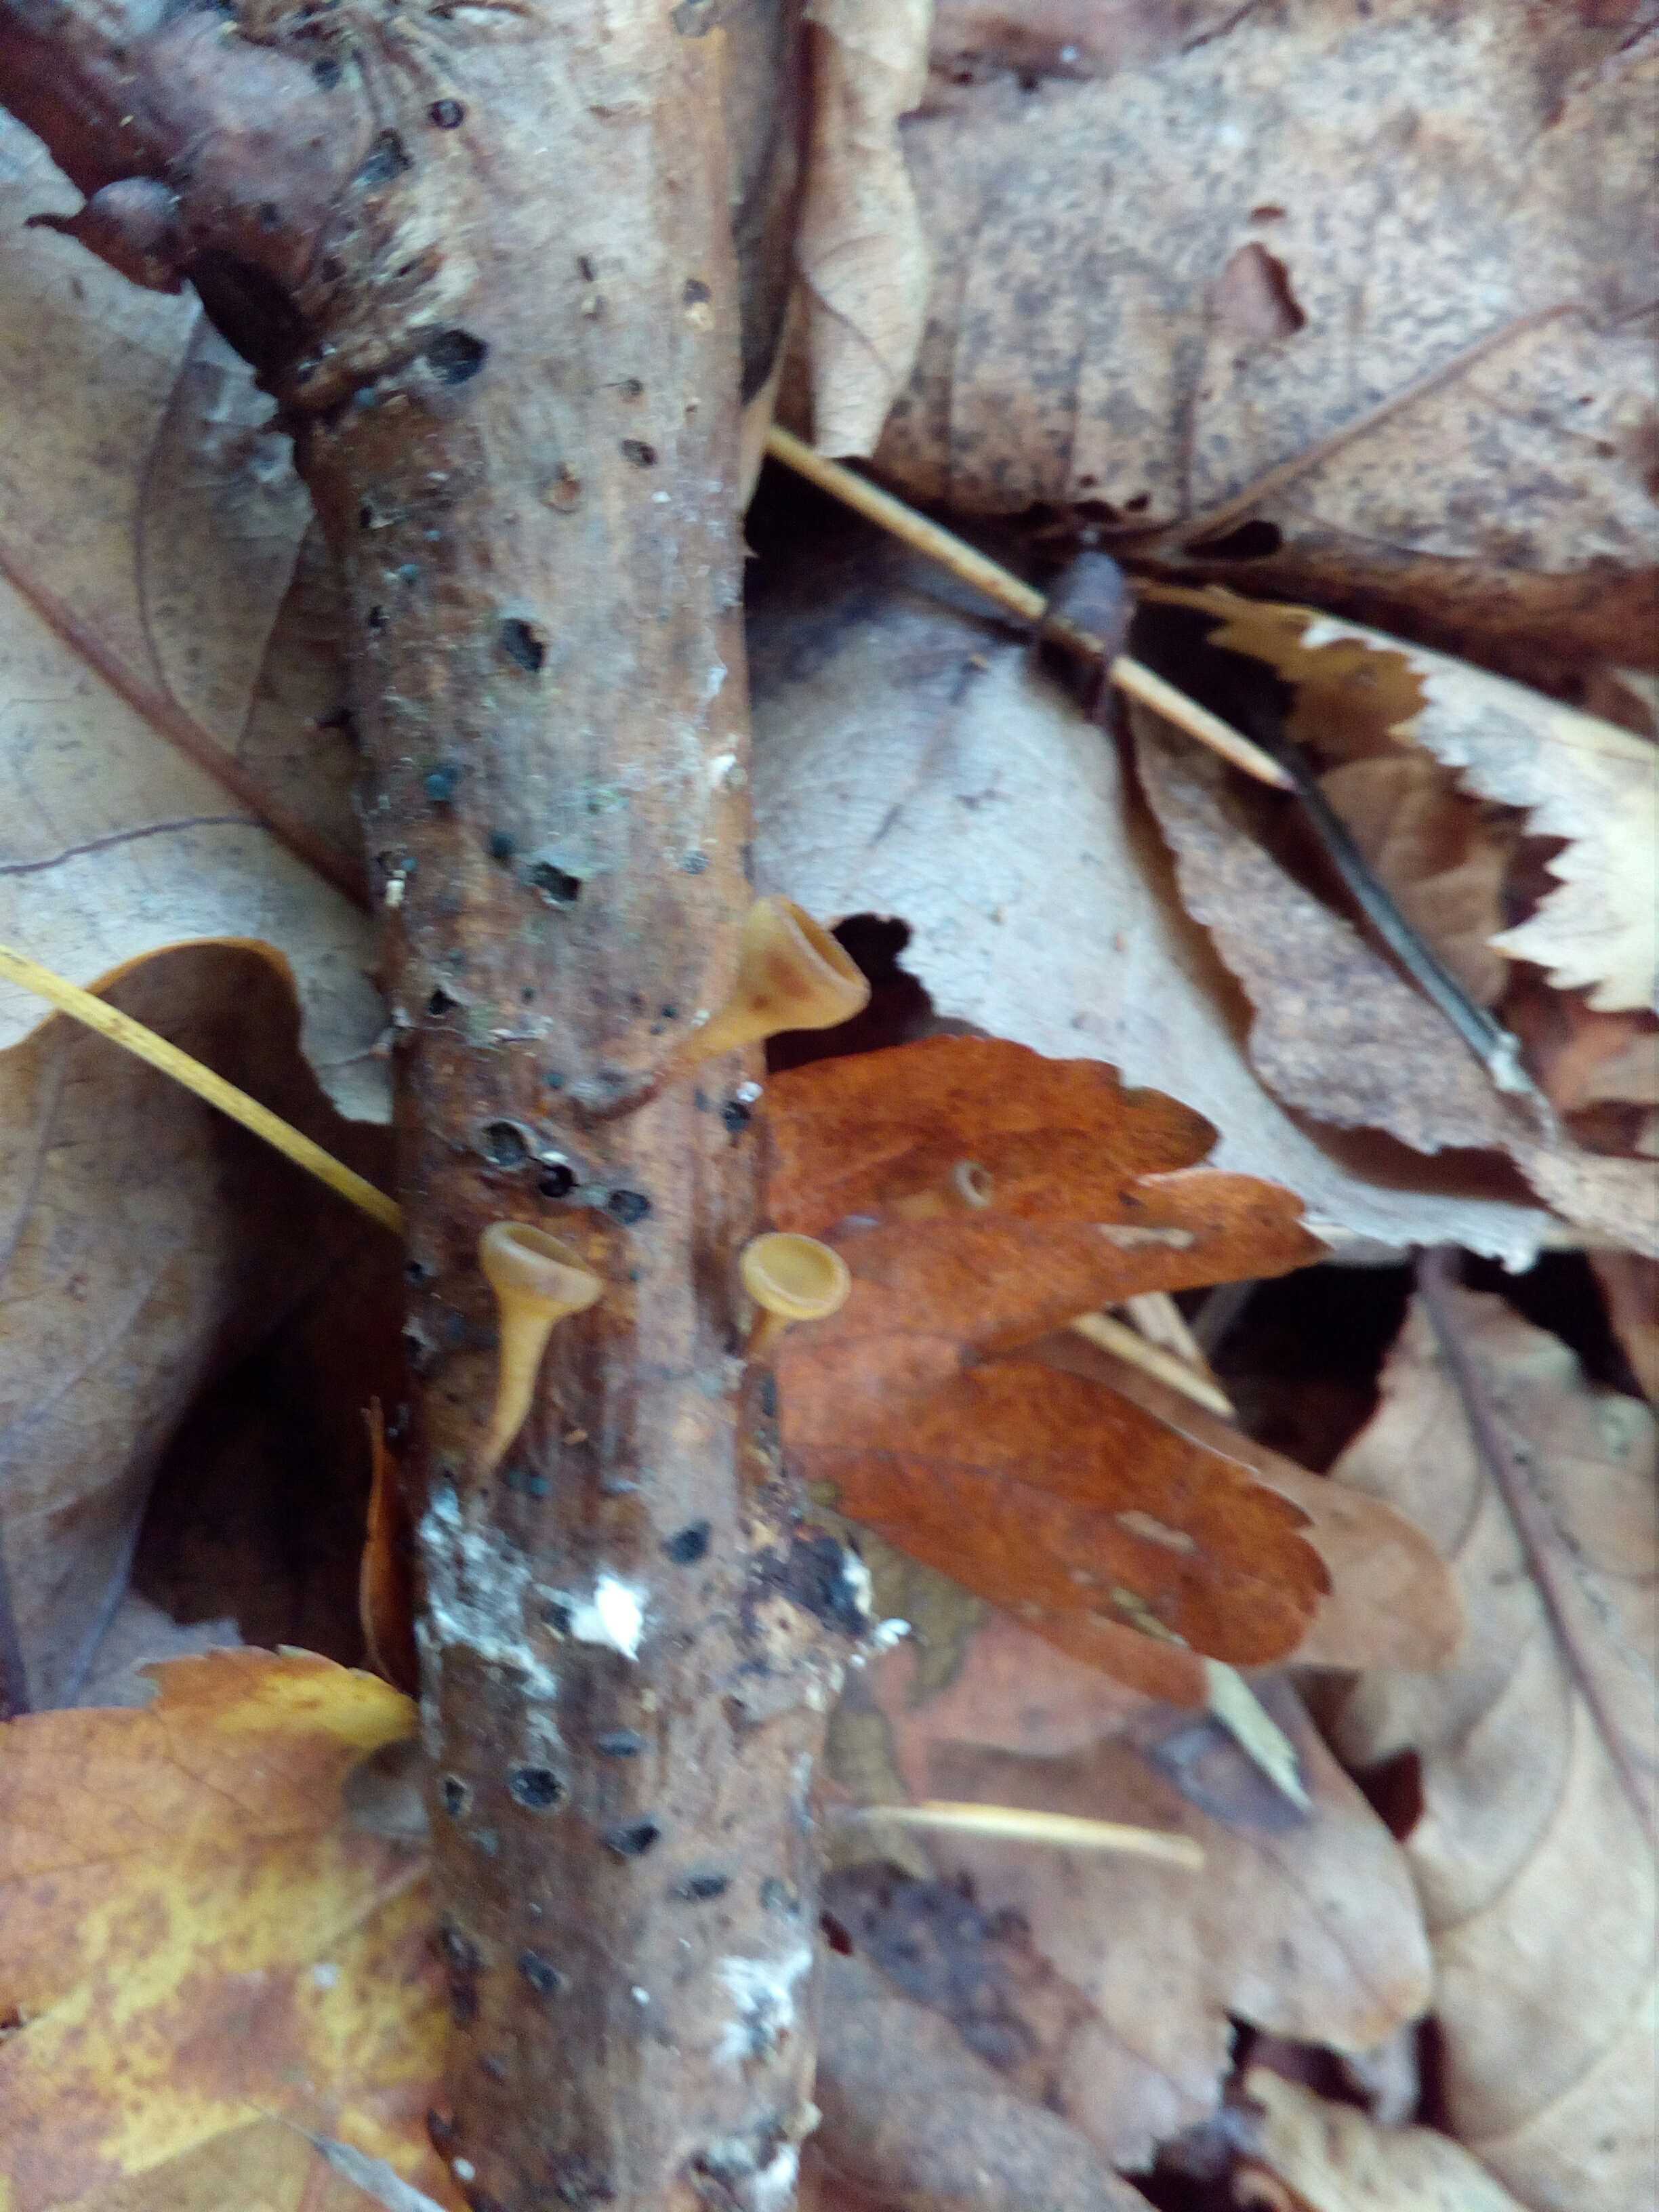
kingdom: Fungi
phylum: Ascomycota
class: Leotiomycetes
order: Helotiales
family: Rutstroemiaceae
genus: Rutstroemia
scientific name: Rutstroemia firma
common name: gren-brunskive
